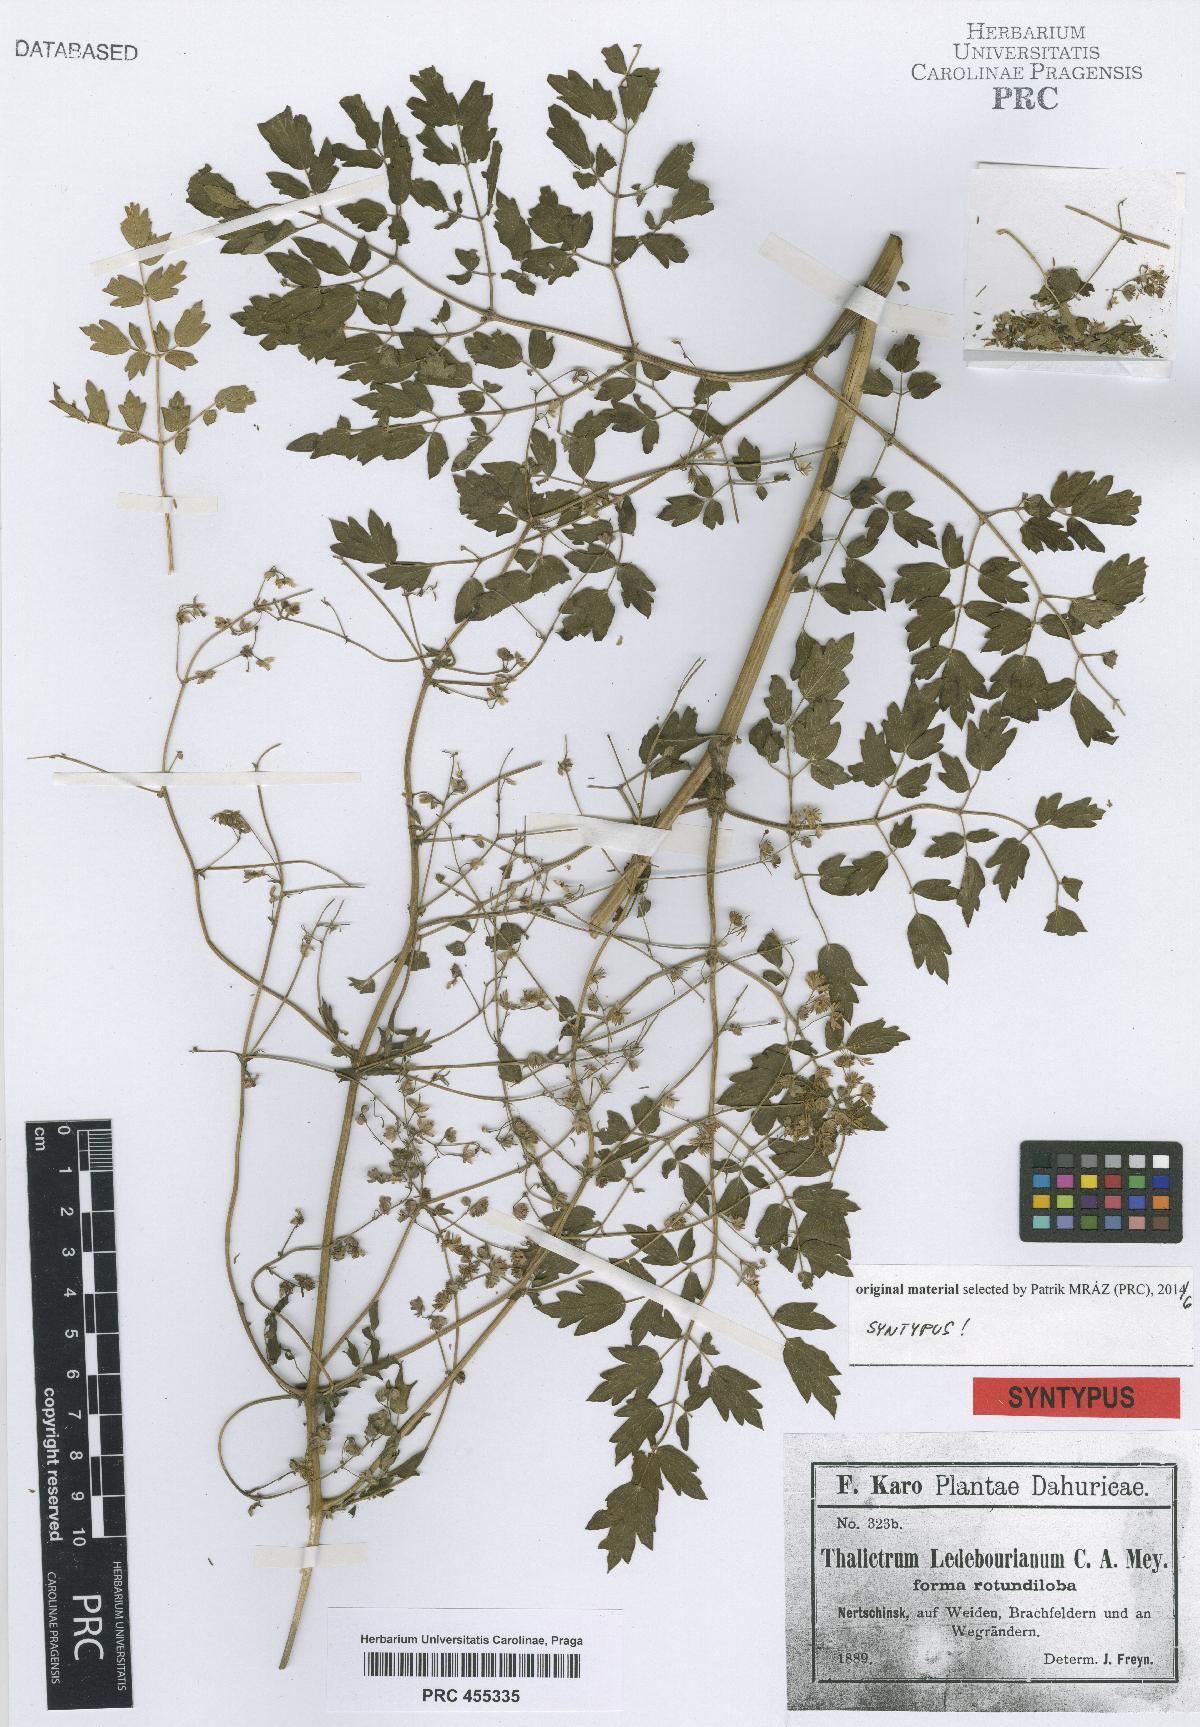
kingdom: Plantae
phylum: Tracheophyta
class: Magnoliopsida
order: Ranunculales
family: Ranunculaceae
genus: Thalictrum
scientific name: Thalictrum squarrosum
